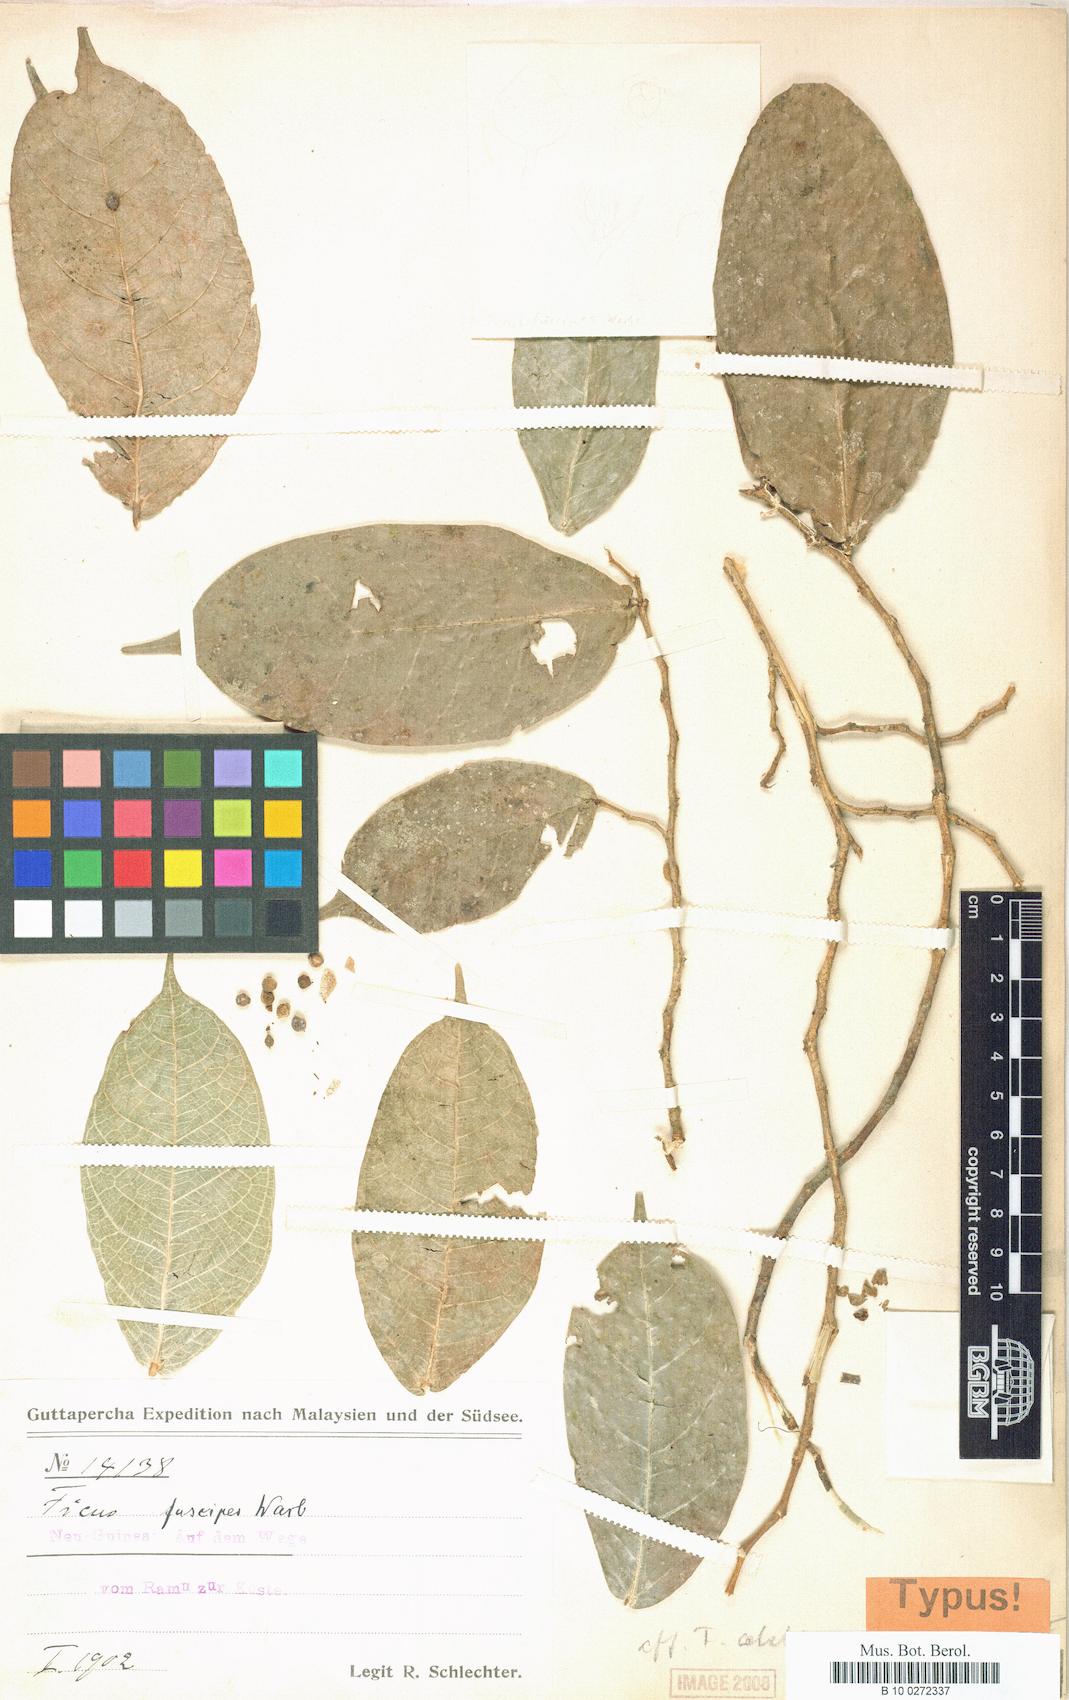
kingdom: Plantae
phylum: Tracheophyta
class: Magnoliopsida
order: Rosales
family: Moraceae
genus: Ficus
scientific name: Ficus armitii
